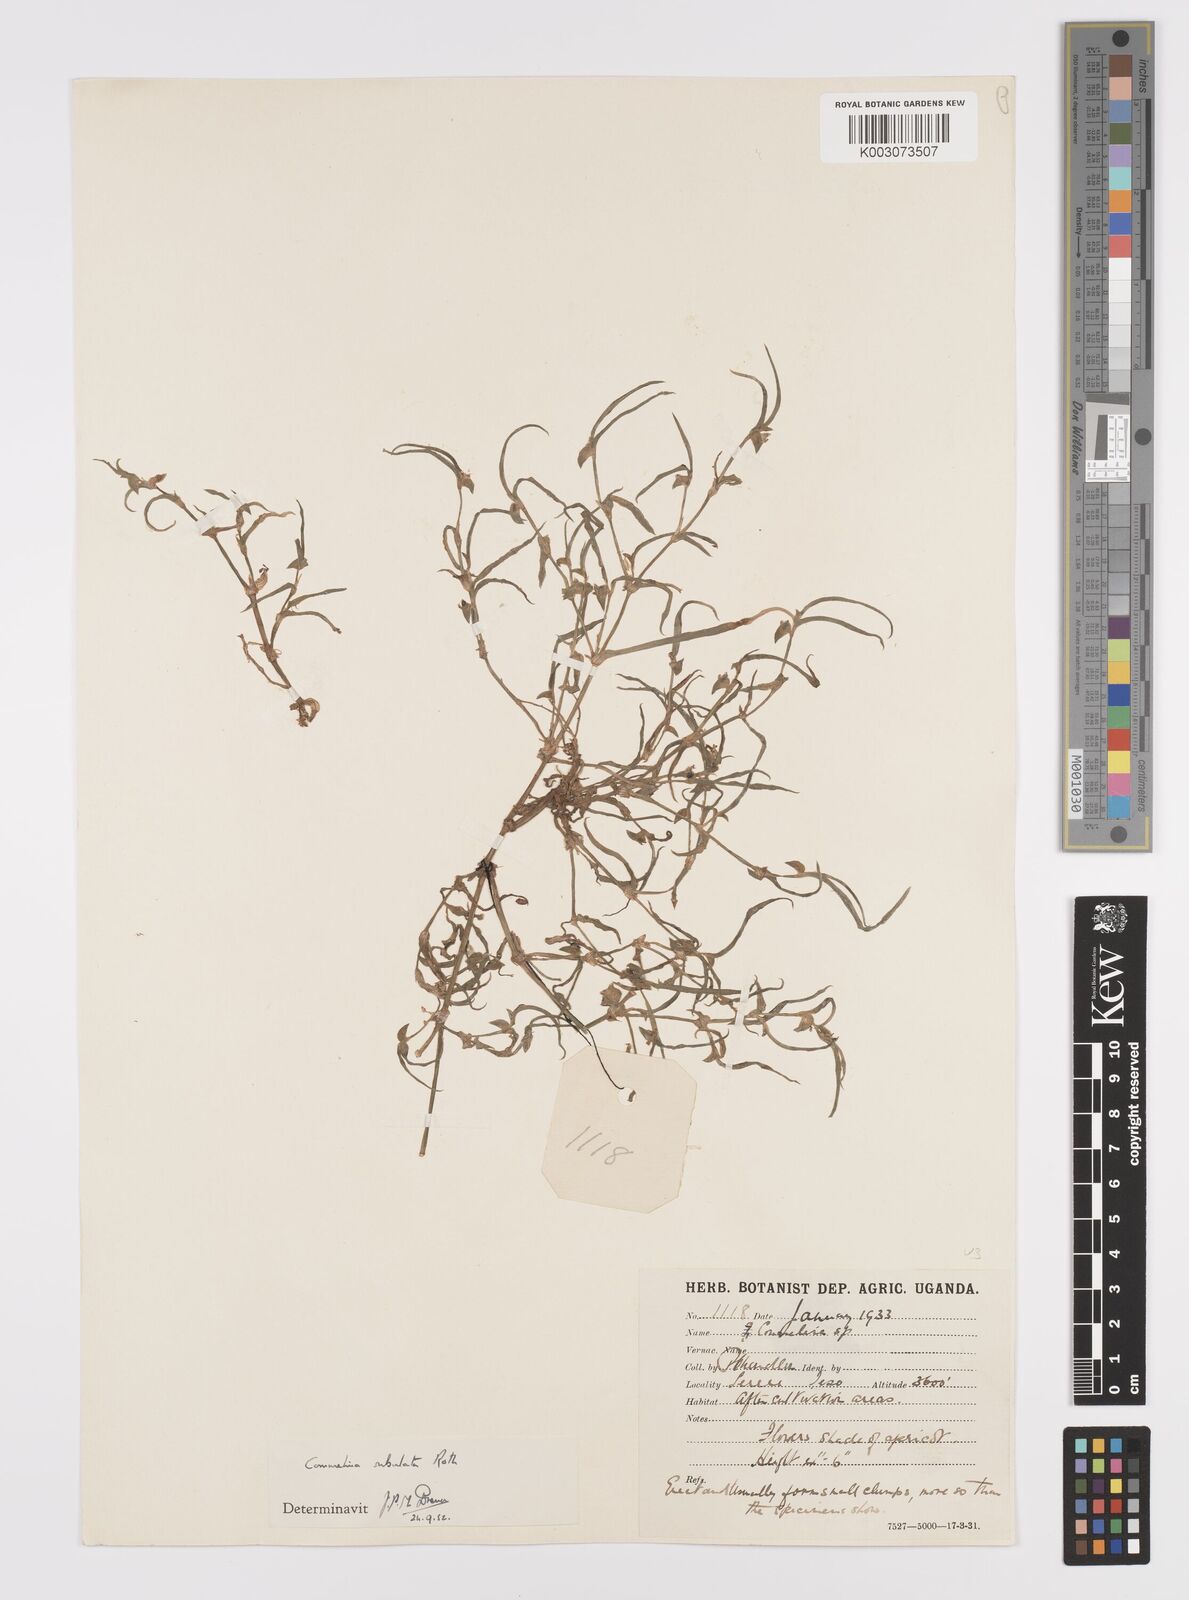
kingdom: Plantae
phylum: Tracheophyta
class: Liliopsida
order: Commelinales
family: Commelinaceae
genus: Commelina
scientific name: Commelina subulata
